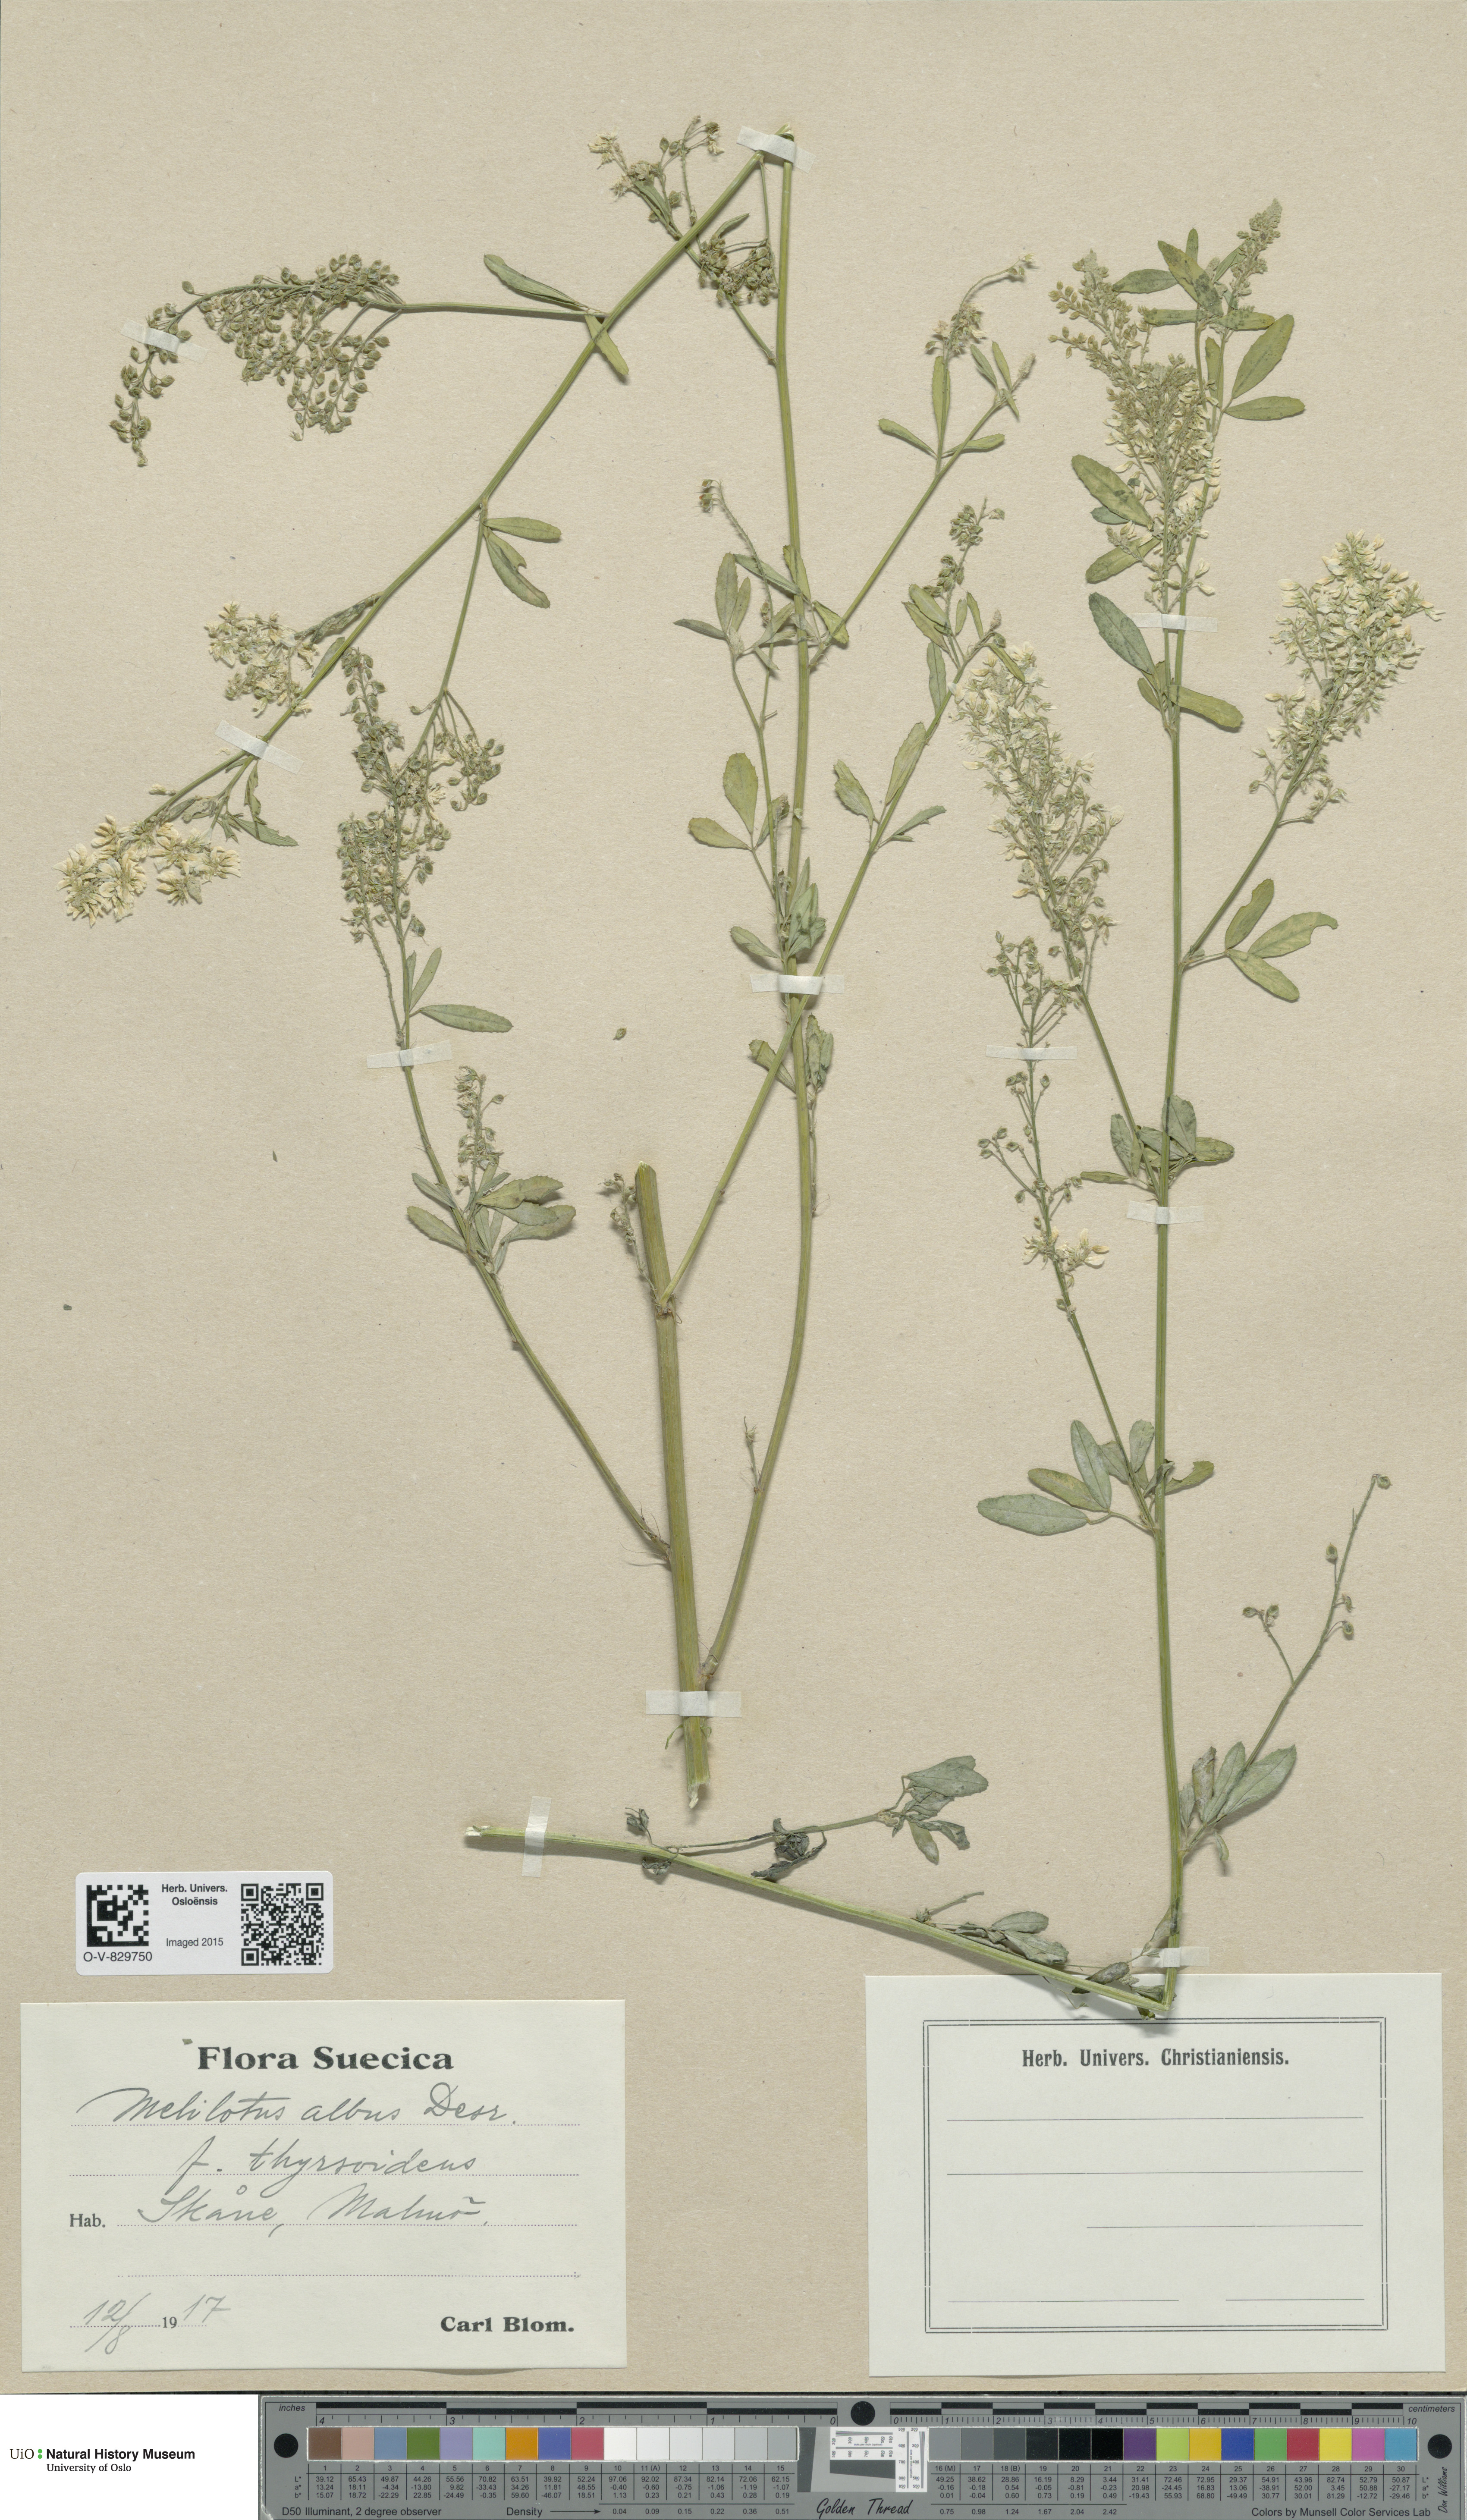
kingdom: Plantae
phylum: Tracheophyta
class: Magnoliopsida
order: Fabales
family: Fabaceae
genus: Melilotus
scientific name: Melilotus albus
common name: White melilot
